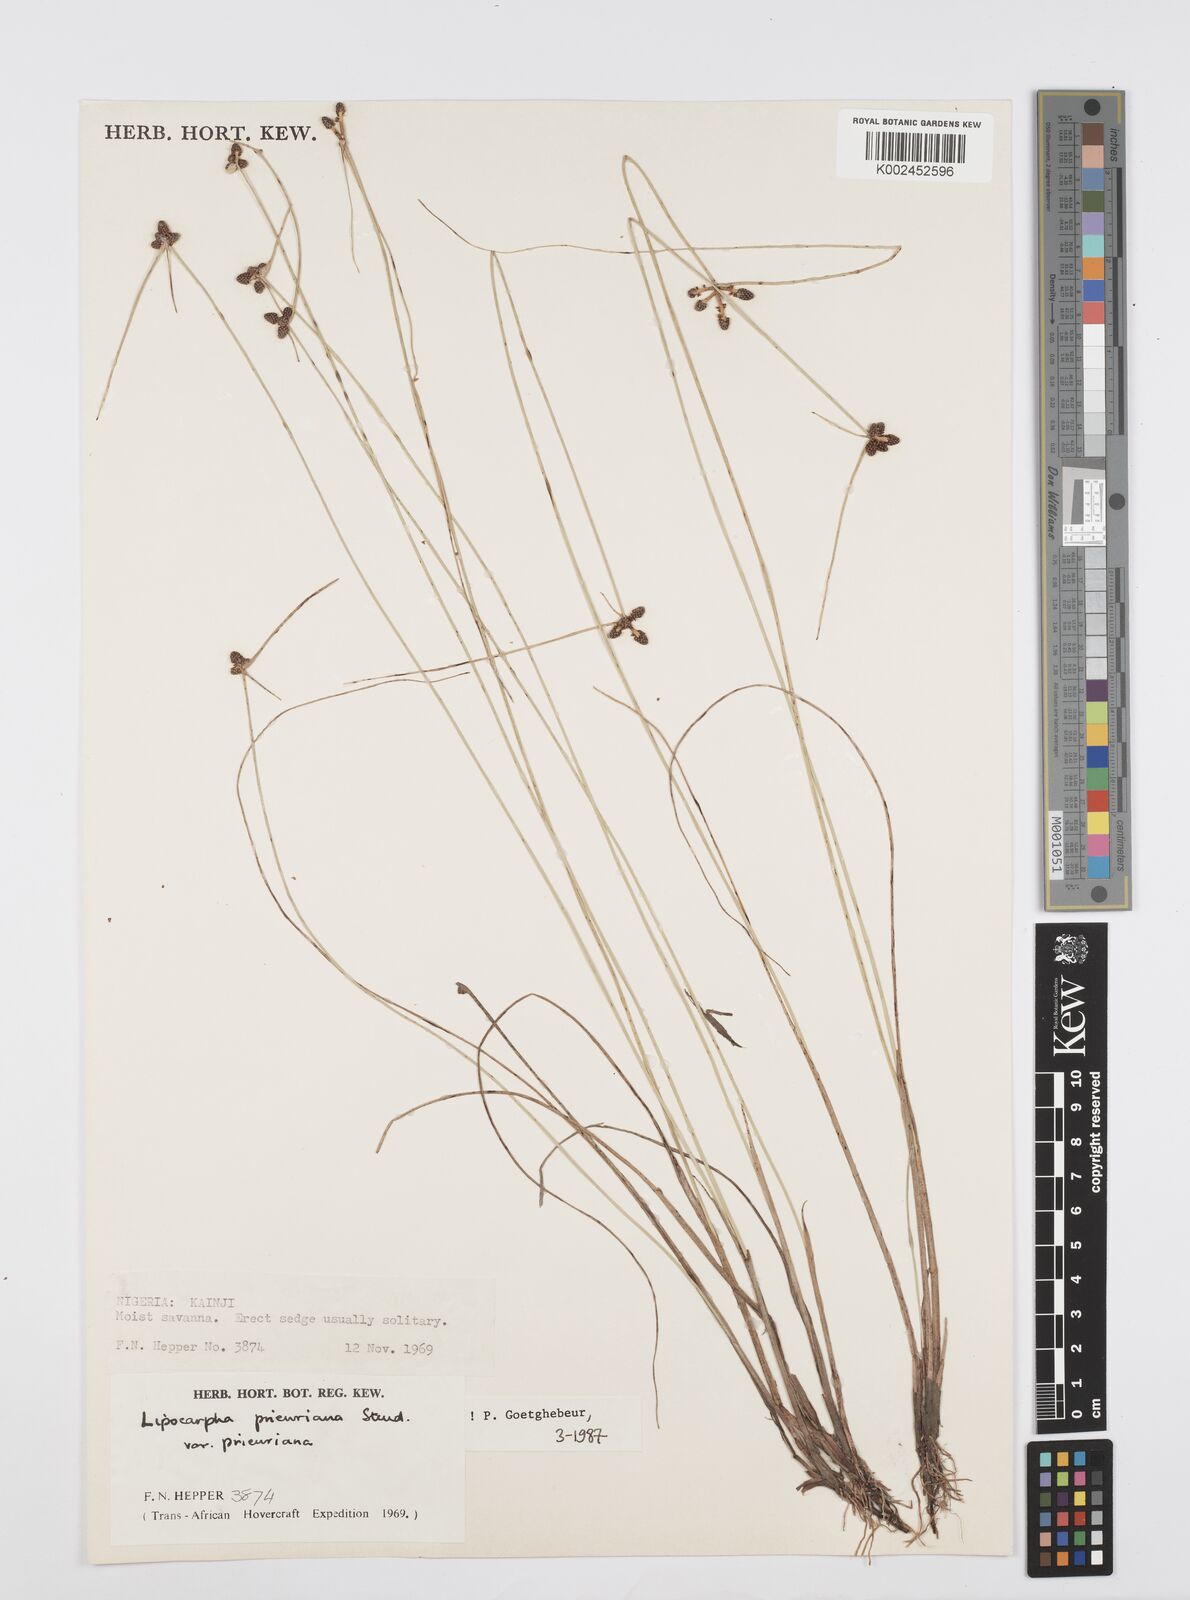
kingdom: Plantae
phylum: Tracheophyta
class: Liliopsida
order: Poales
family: Cyperaceae
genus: Cyperus
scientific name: Cyperus prieurianus
